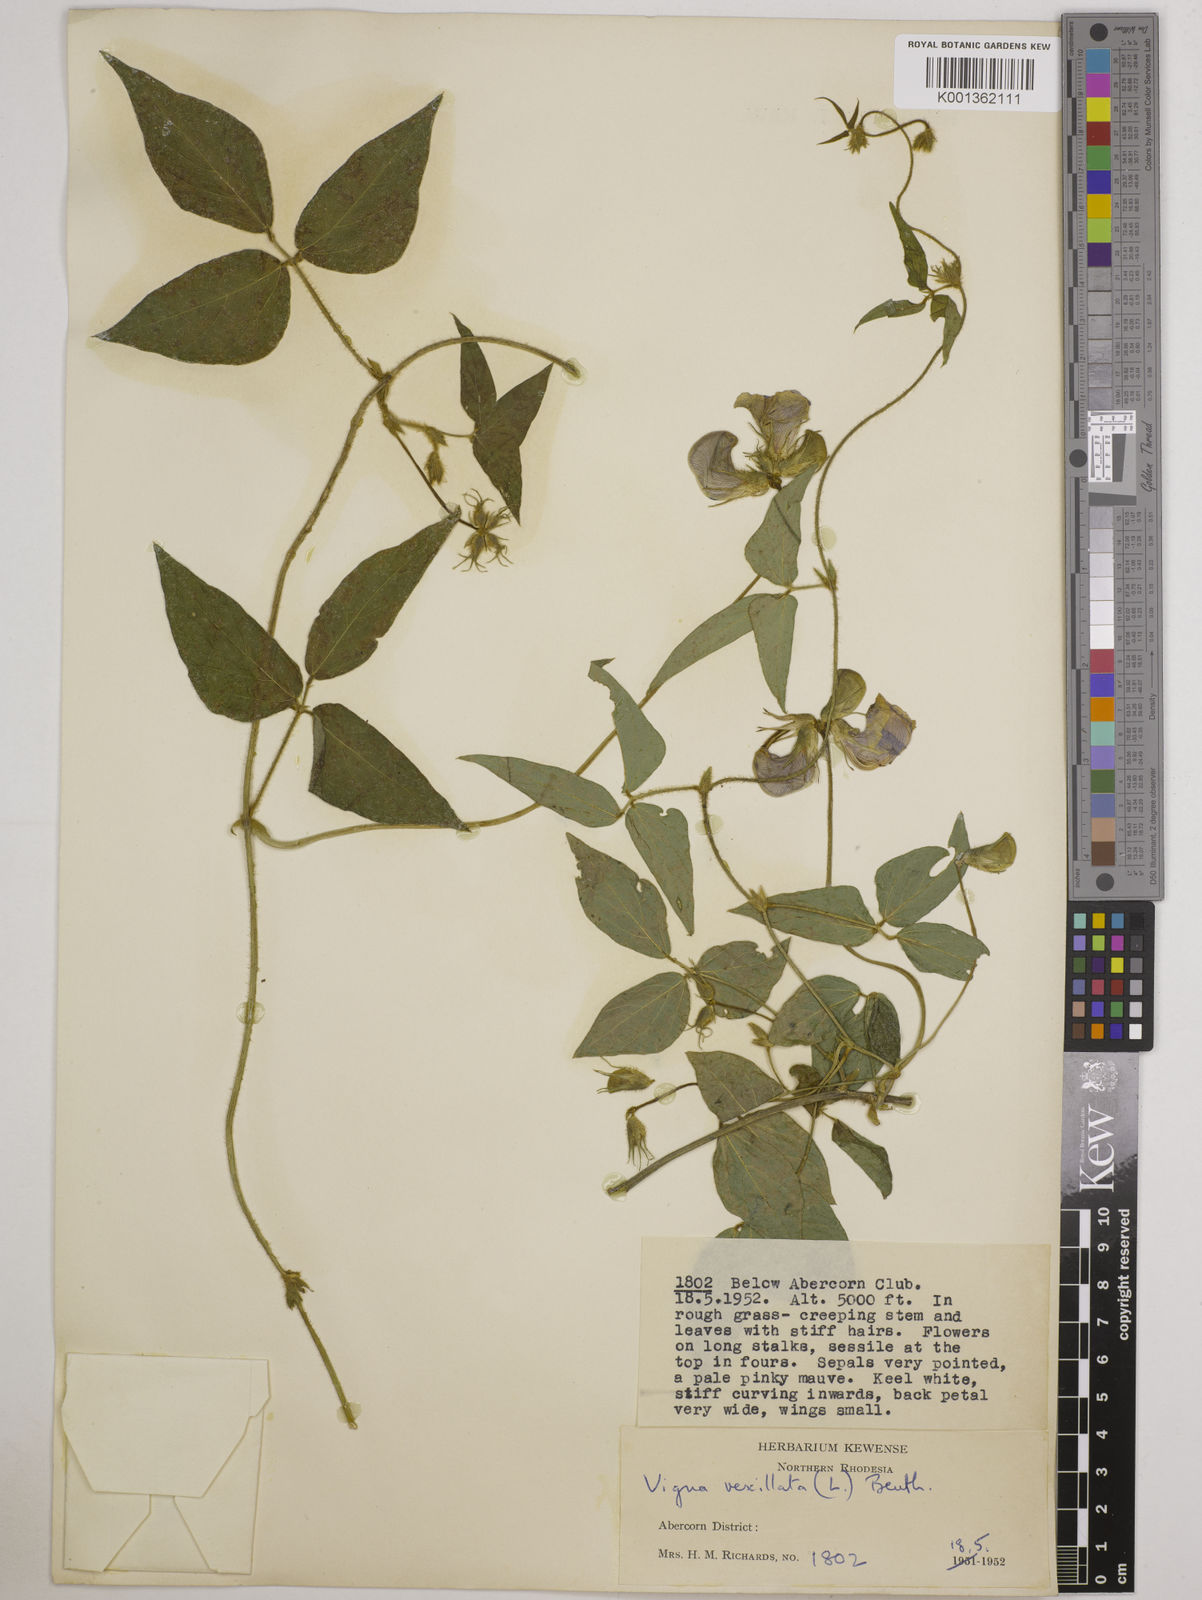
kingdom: Plantae
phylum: Tracheophyta
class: Magnoliopsida
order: Fabales
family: Fabaceae
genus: Vigna
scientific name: Vigna vexillata
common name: Zombi pea
